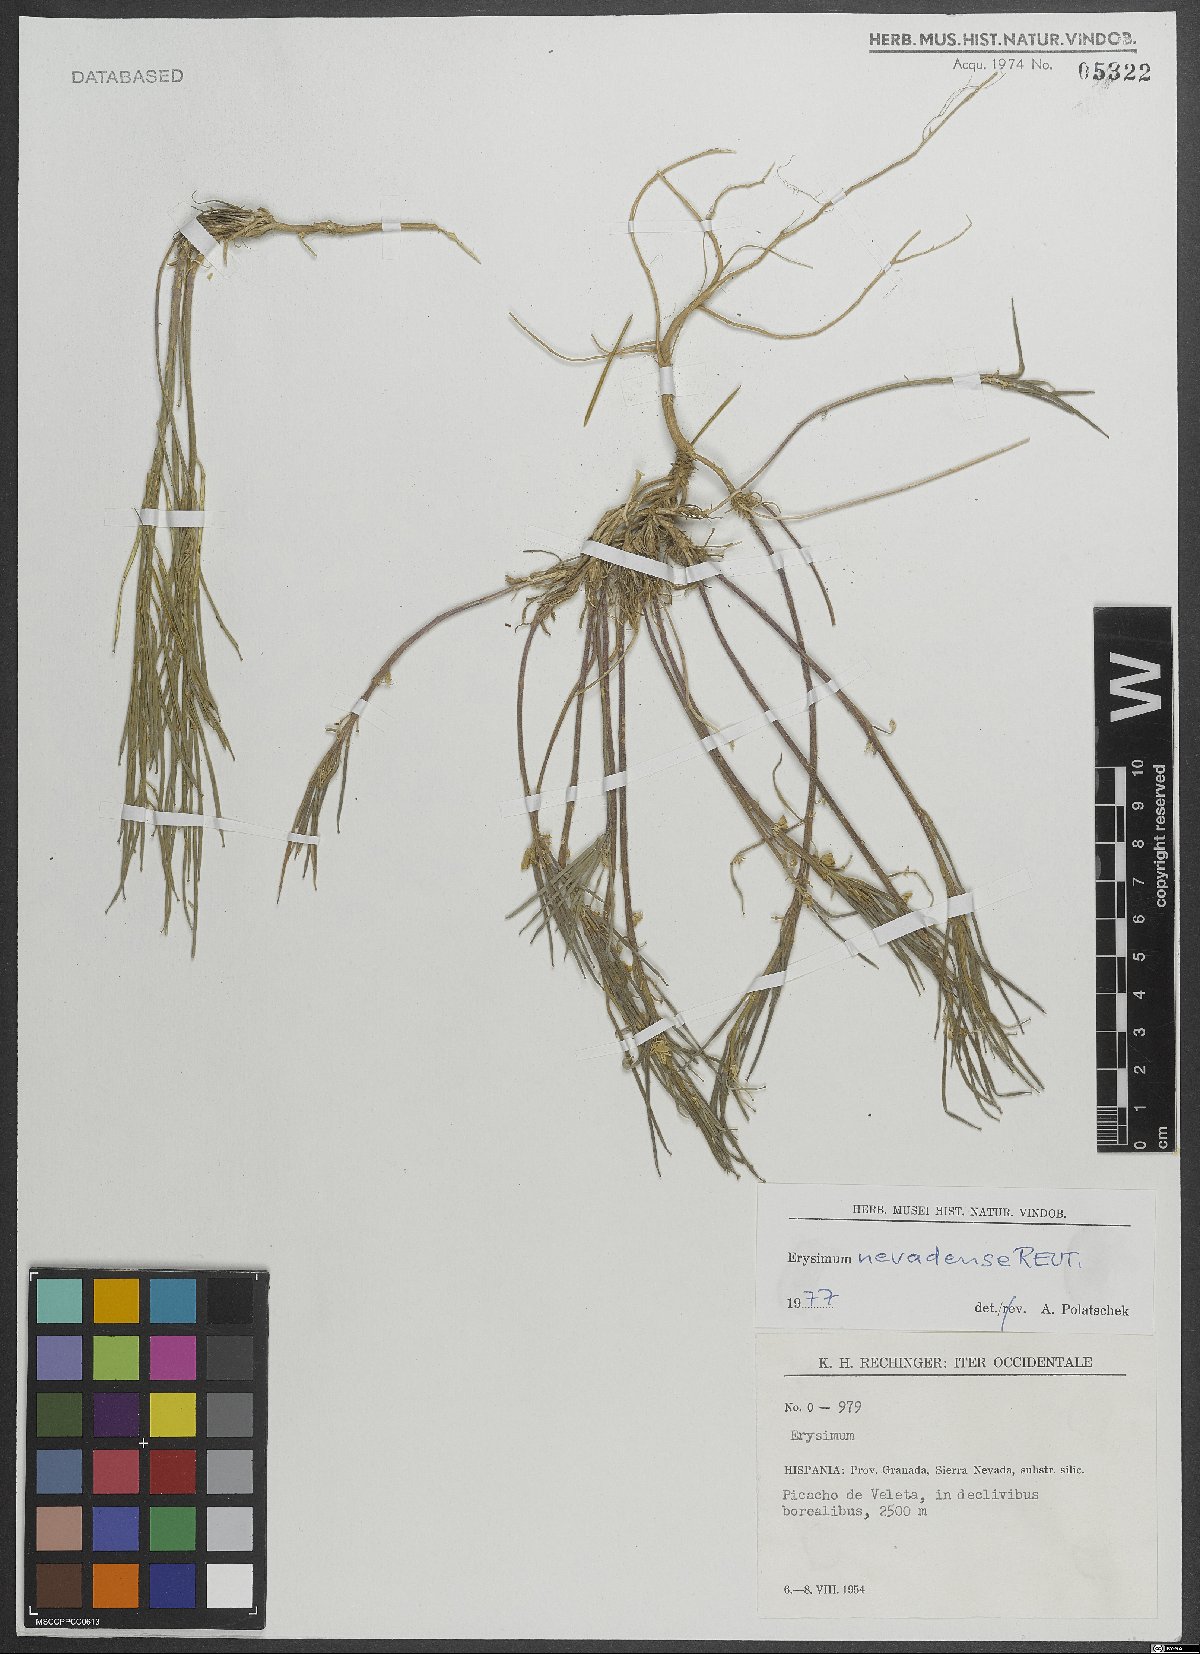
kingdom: Plantae
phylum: Tracheophyta
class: Magnoliopsida
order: Brassicales
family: Brassicaceae
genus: Erysimum
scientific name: Erysimum nevadense
